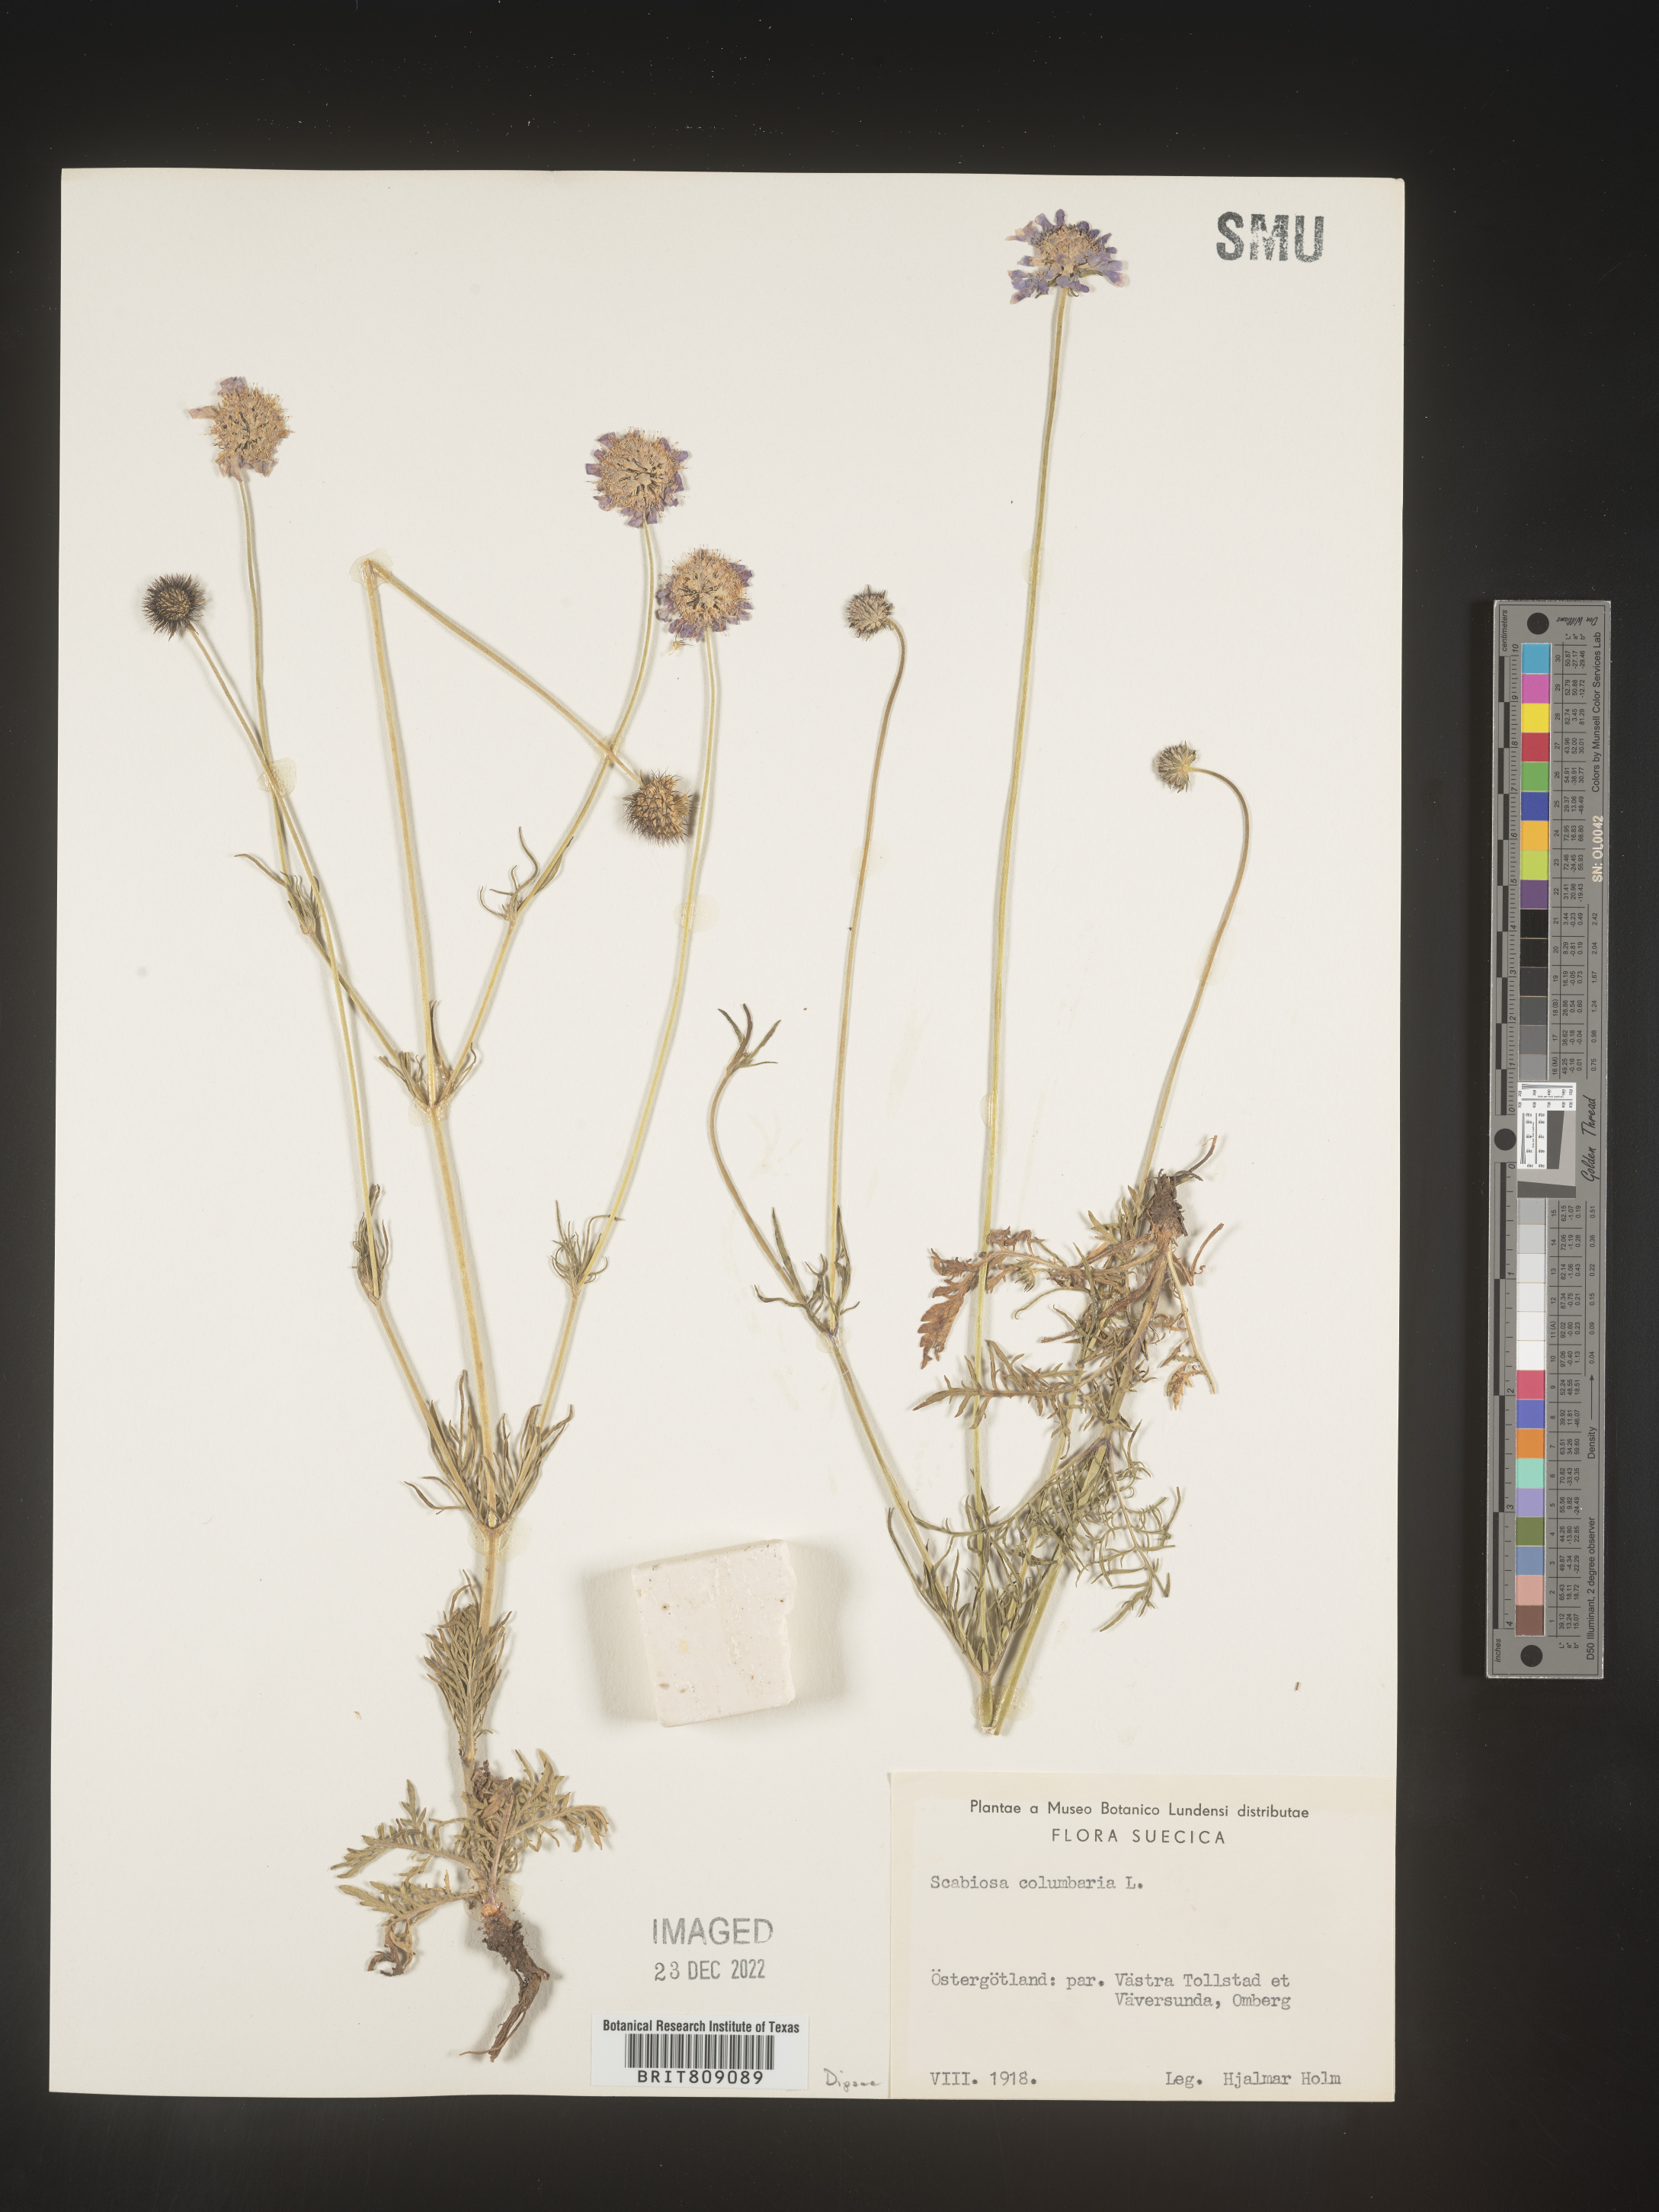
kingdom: Plantae
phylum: Tracheophyta
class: Magnoliopsida
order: Dipsacales
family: Caprifoliaceae
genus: Scabiosa
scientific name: Scabiosa
